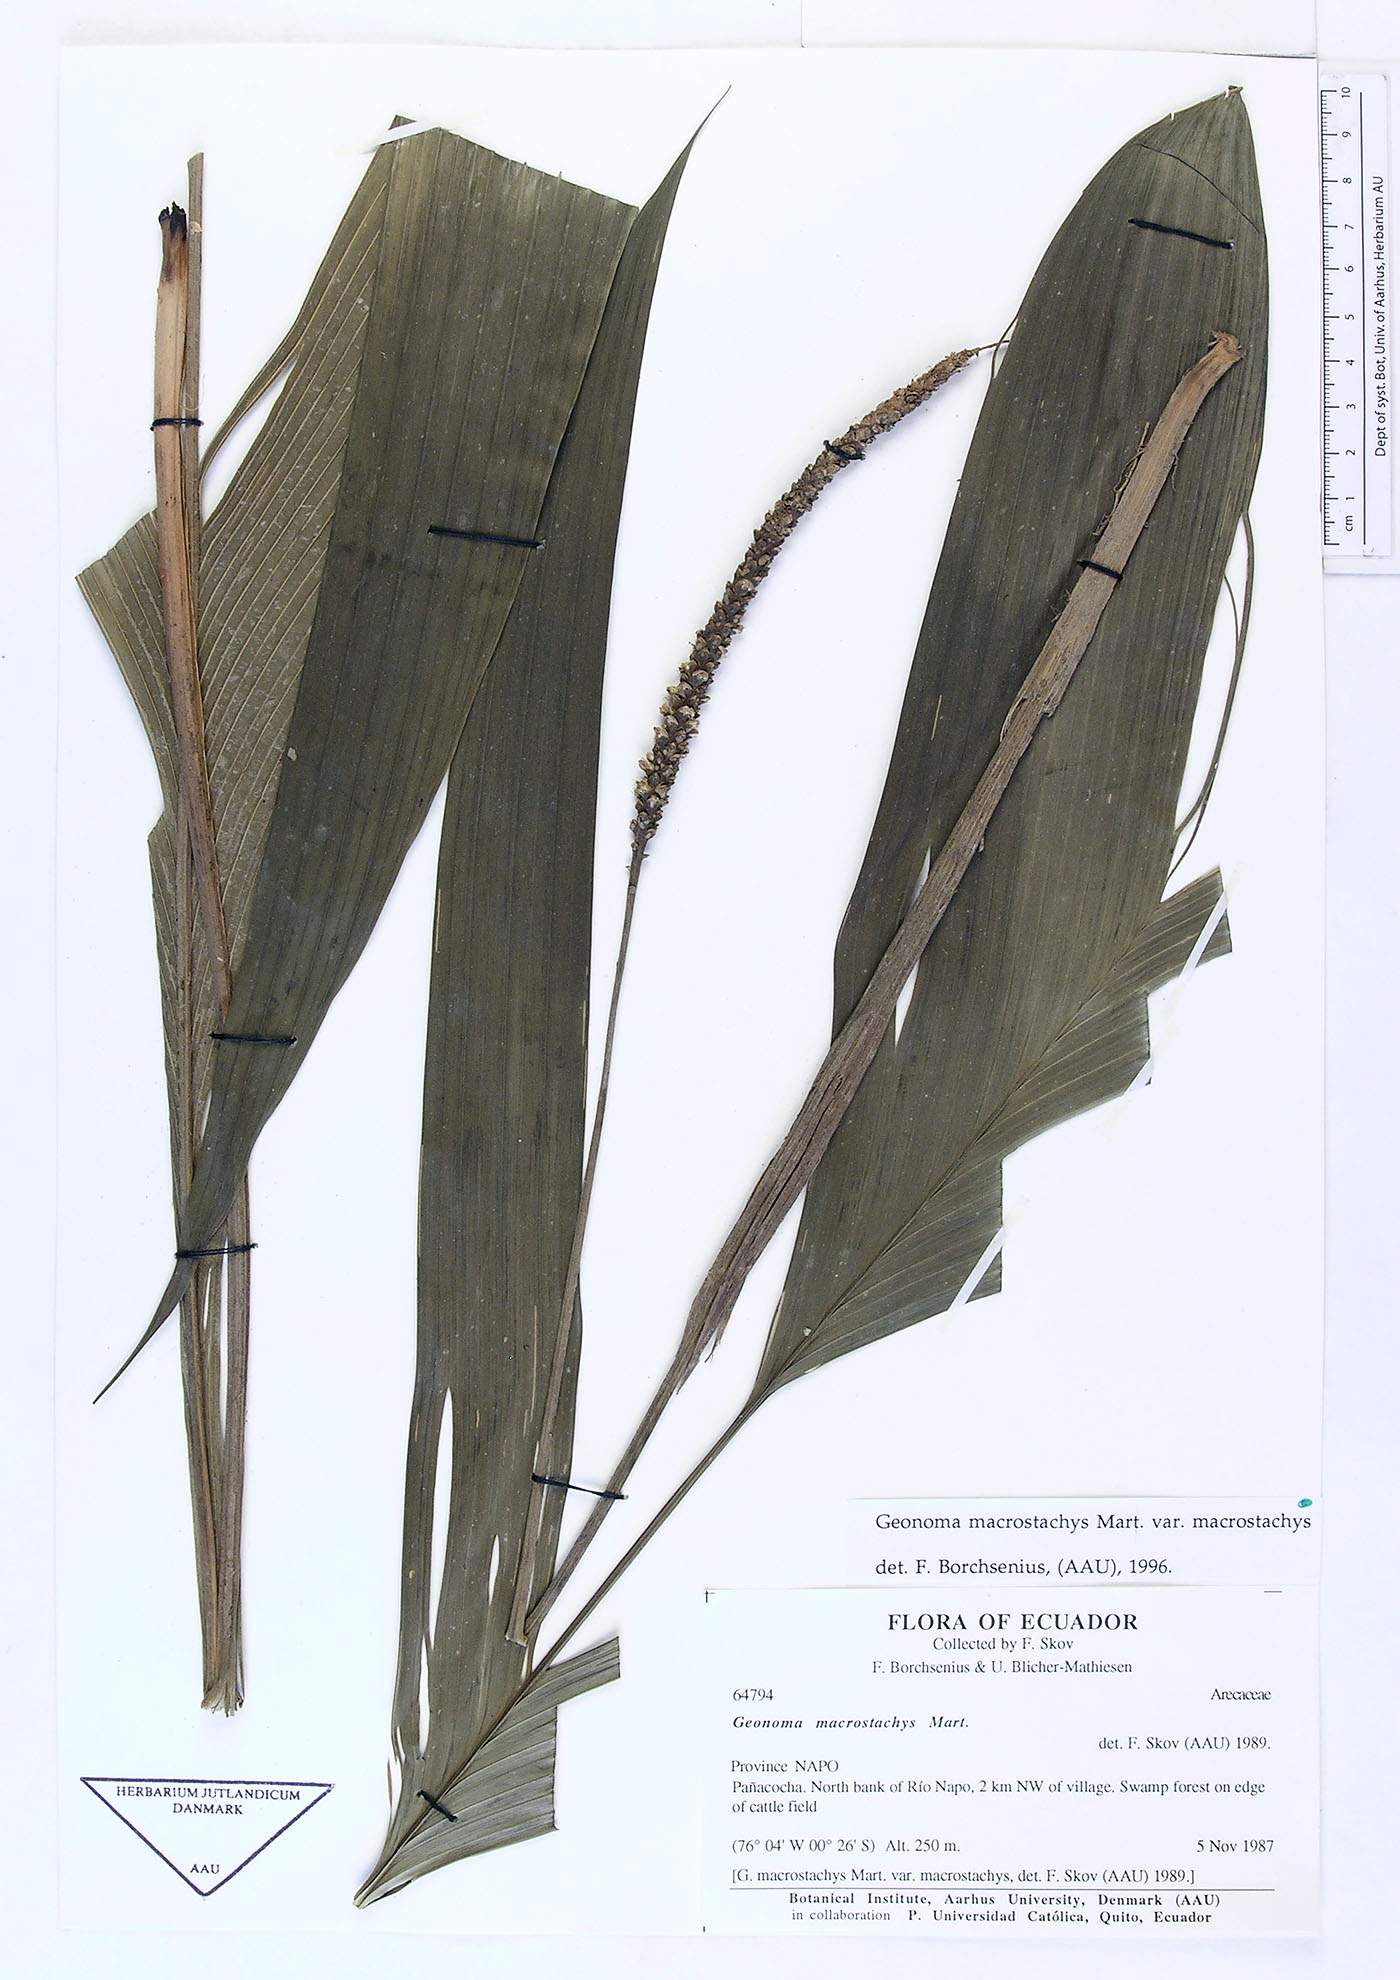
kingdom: Plantae
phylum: Tracheophyta
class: Liliopsida
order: Arecales
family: Arecaceae
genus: Geonoma
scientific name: Geonoma macrostachys
